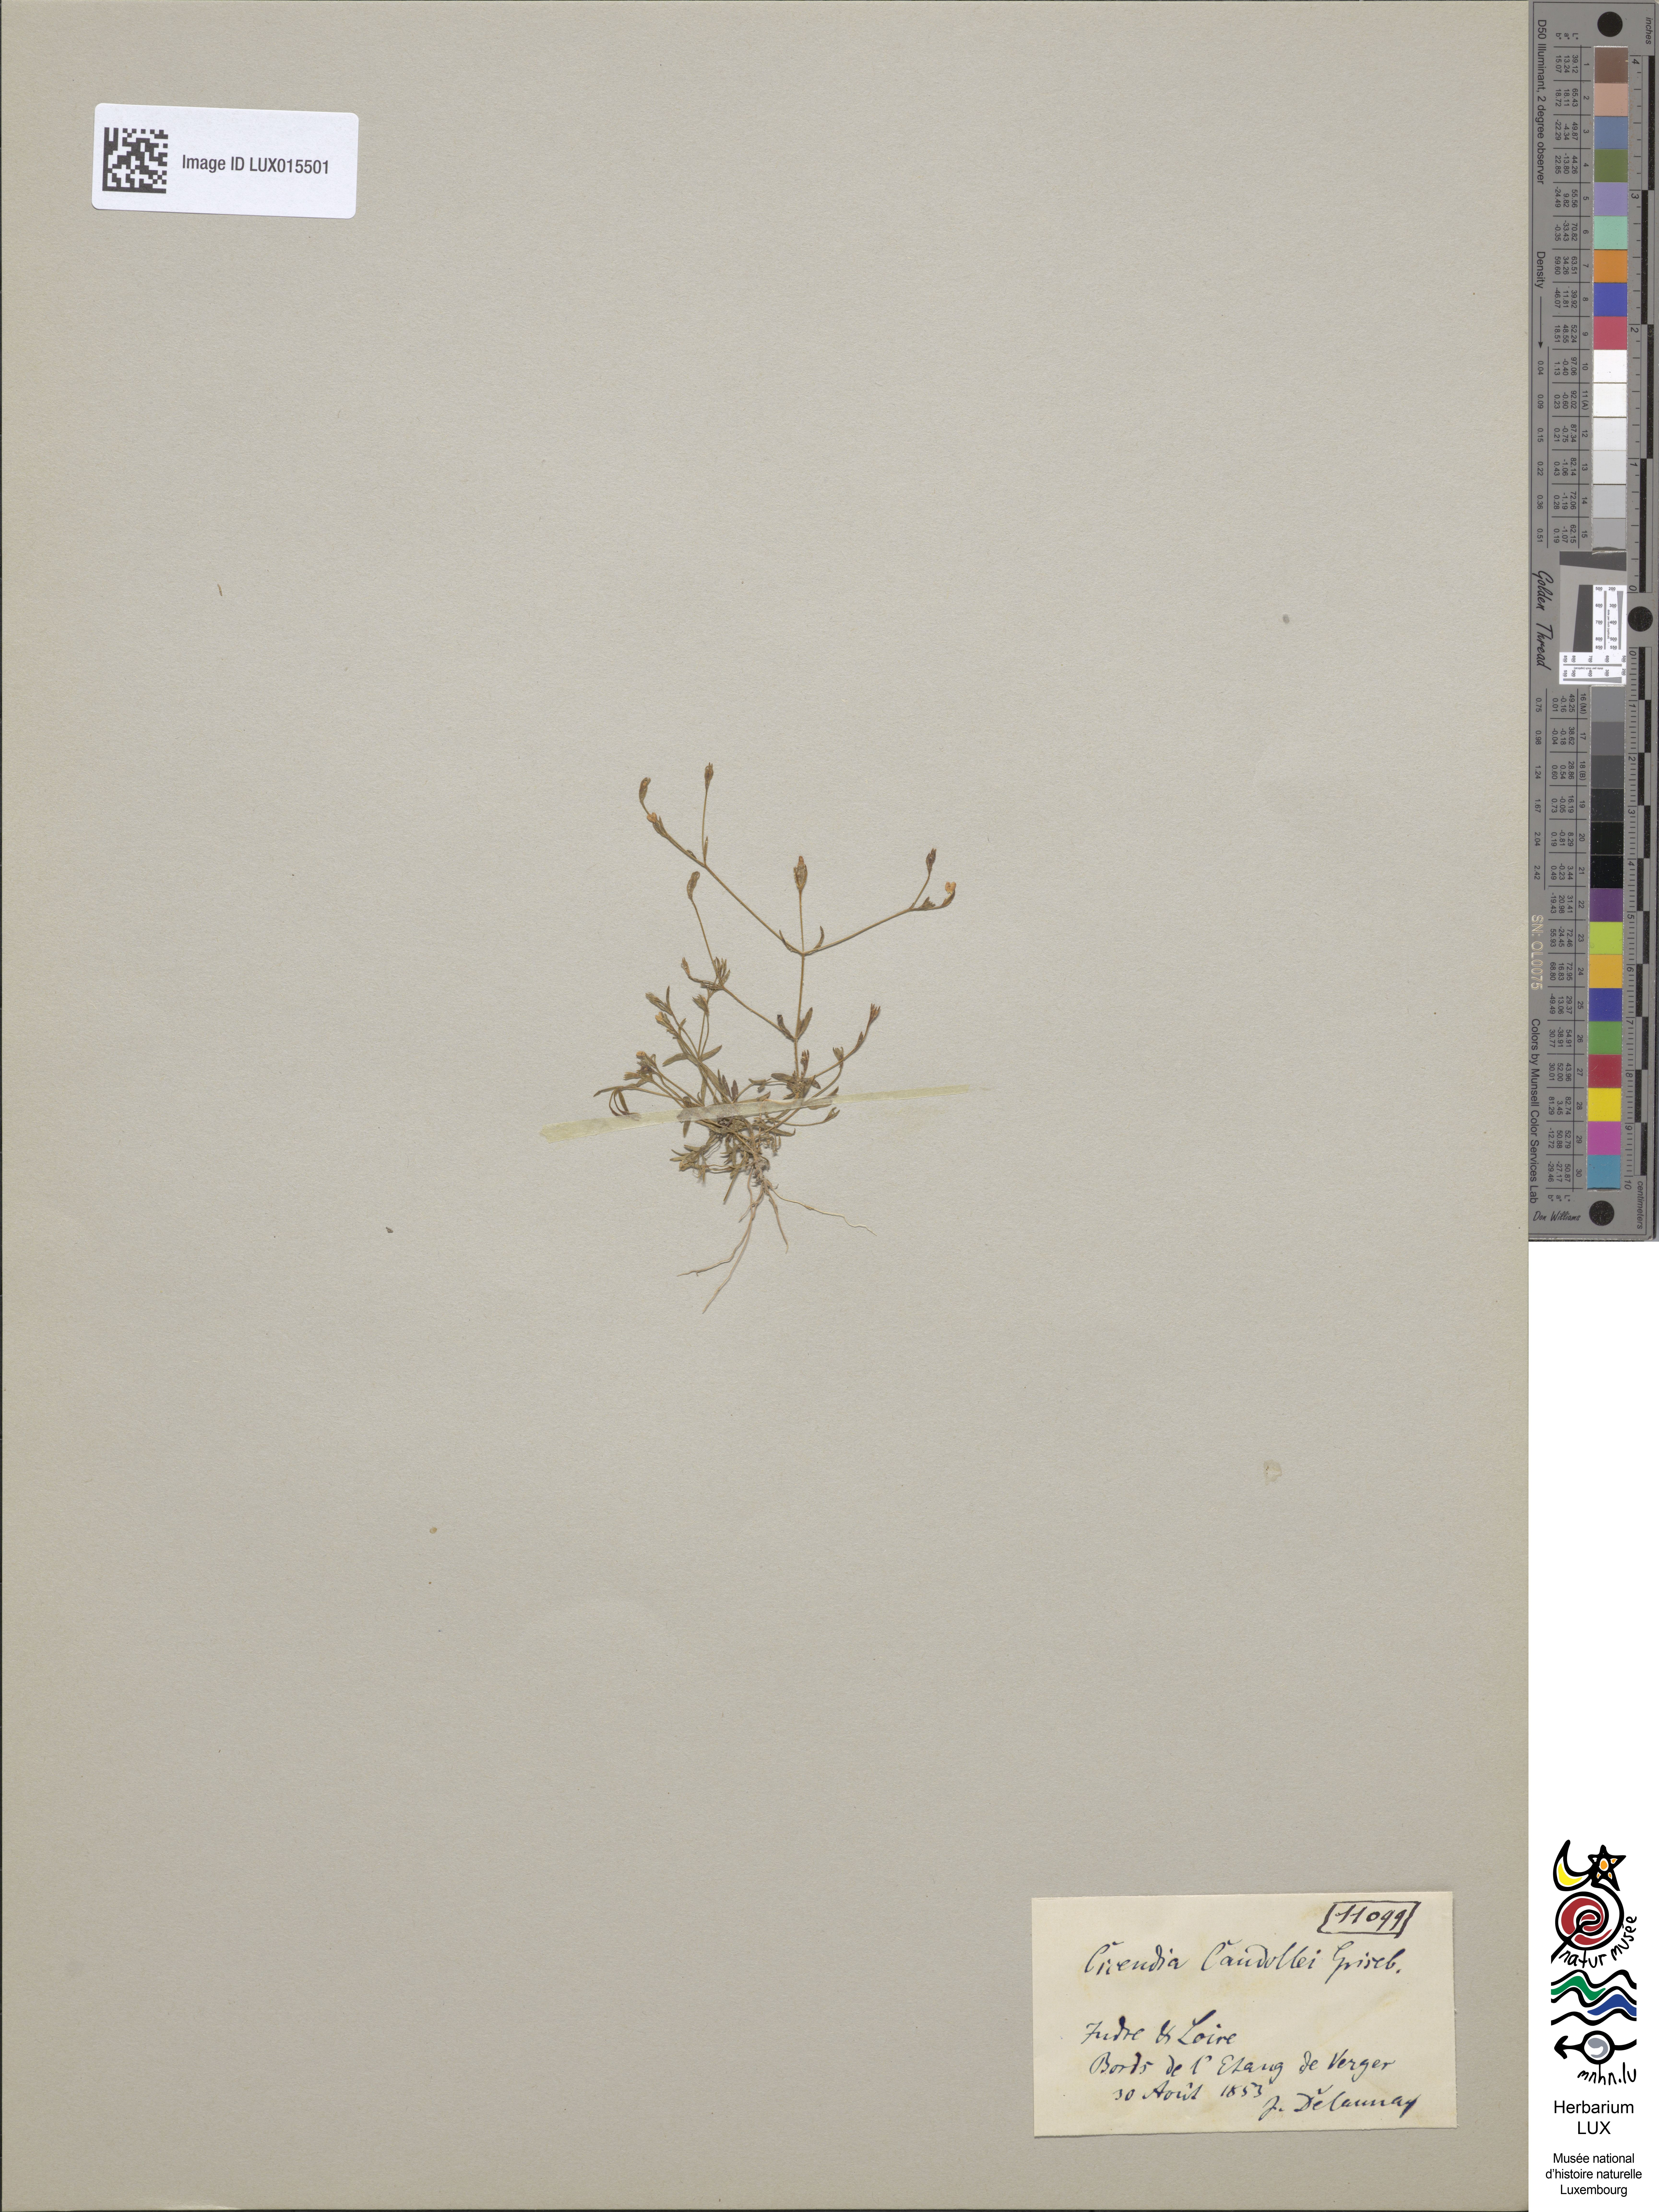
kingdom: Plantae
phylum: Tracheophyta
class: Magnoliopsida
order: Gentianales
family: Gentianaceae
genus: Exaculum
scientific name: Exaculum pusillum
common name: Guernsey centaury
